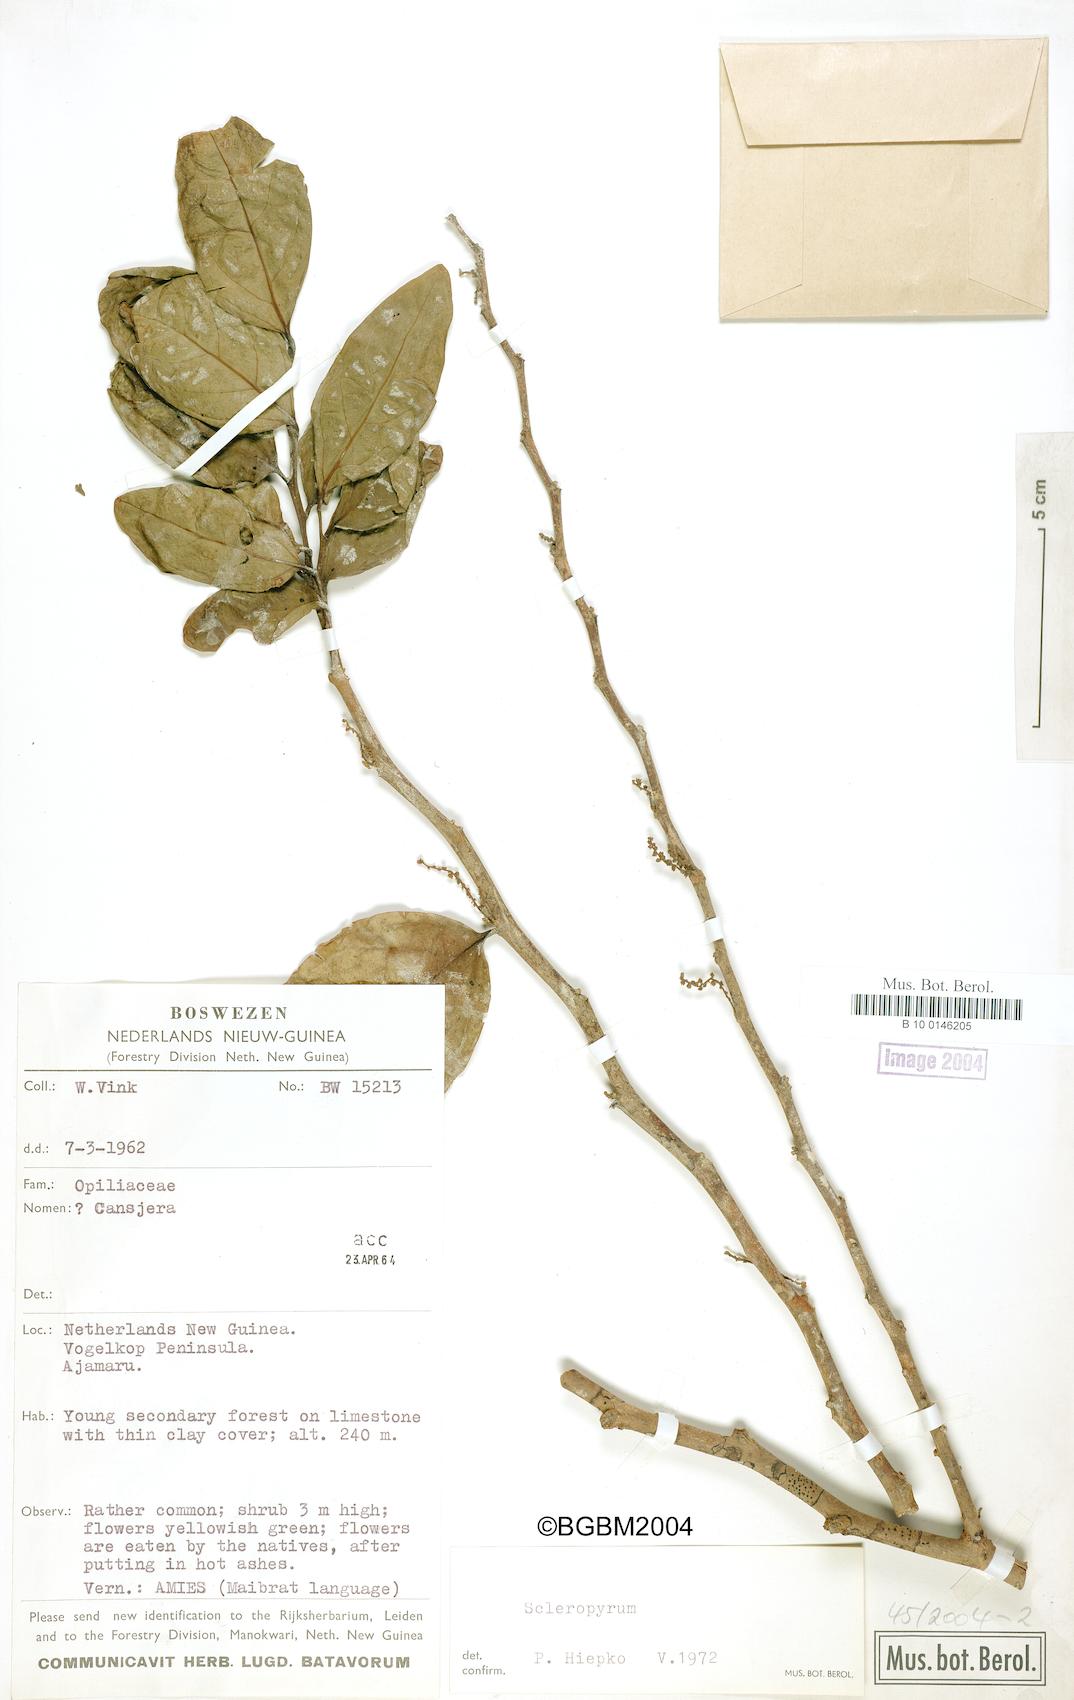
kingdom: Plantae
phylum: Tracheophyta
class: Magnoliopsida
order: Santalales
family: Cervantesiaceae
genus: Scleropyrum
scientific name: Scleropyrum
